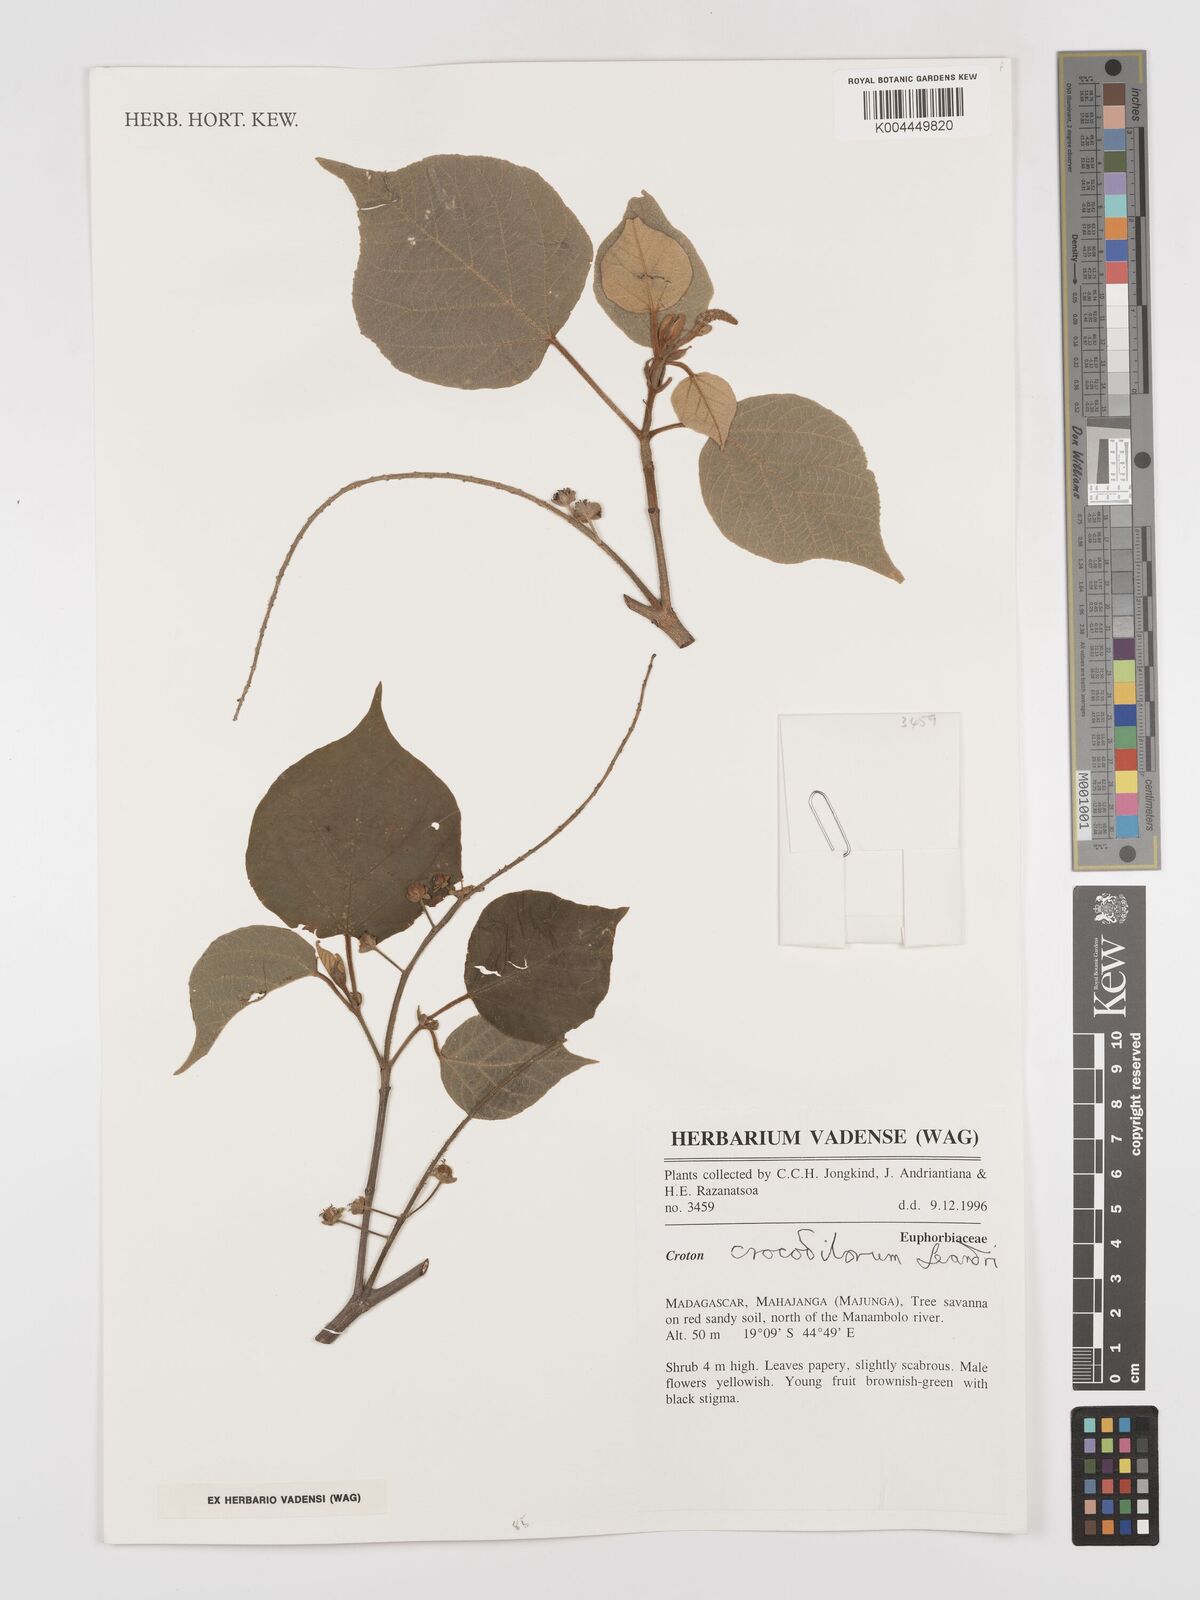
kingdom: Plantae
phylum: Tracheophyta
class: Magnoliopsida
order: Malpighiales
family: Euphorbiaceae
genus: Croton
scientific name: Croton crocodilorum
